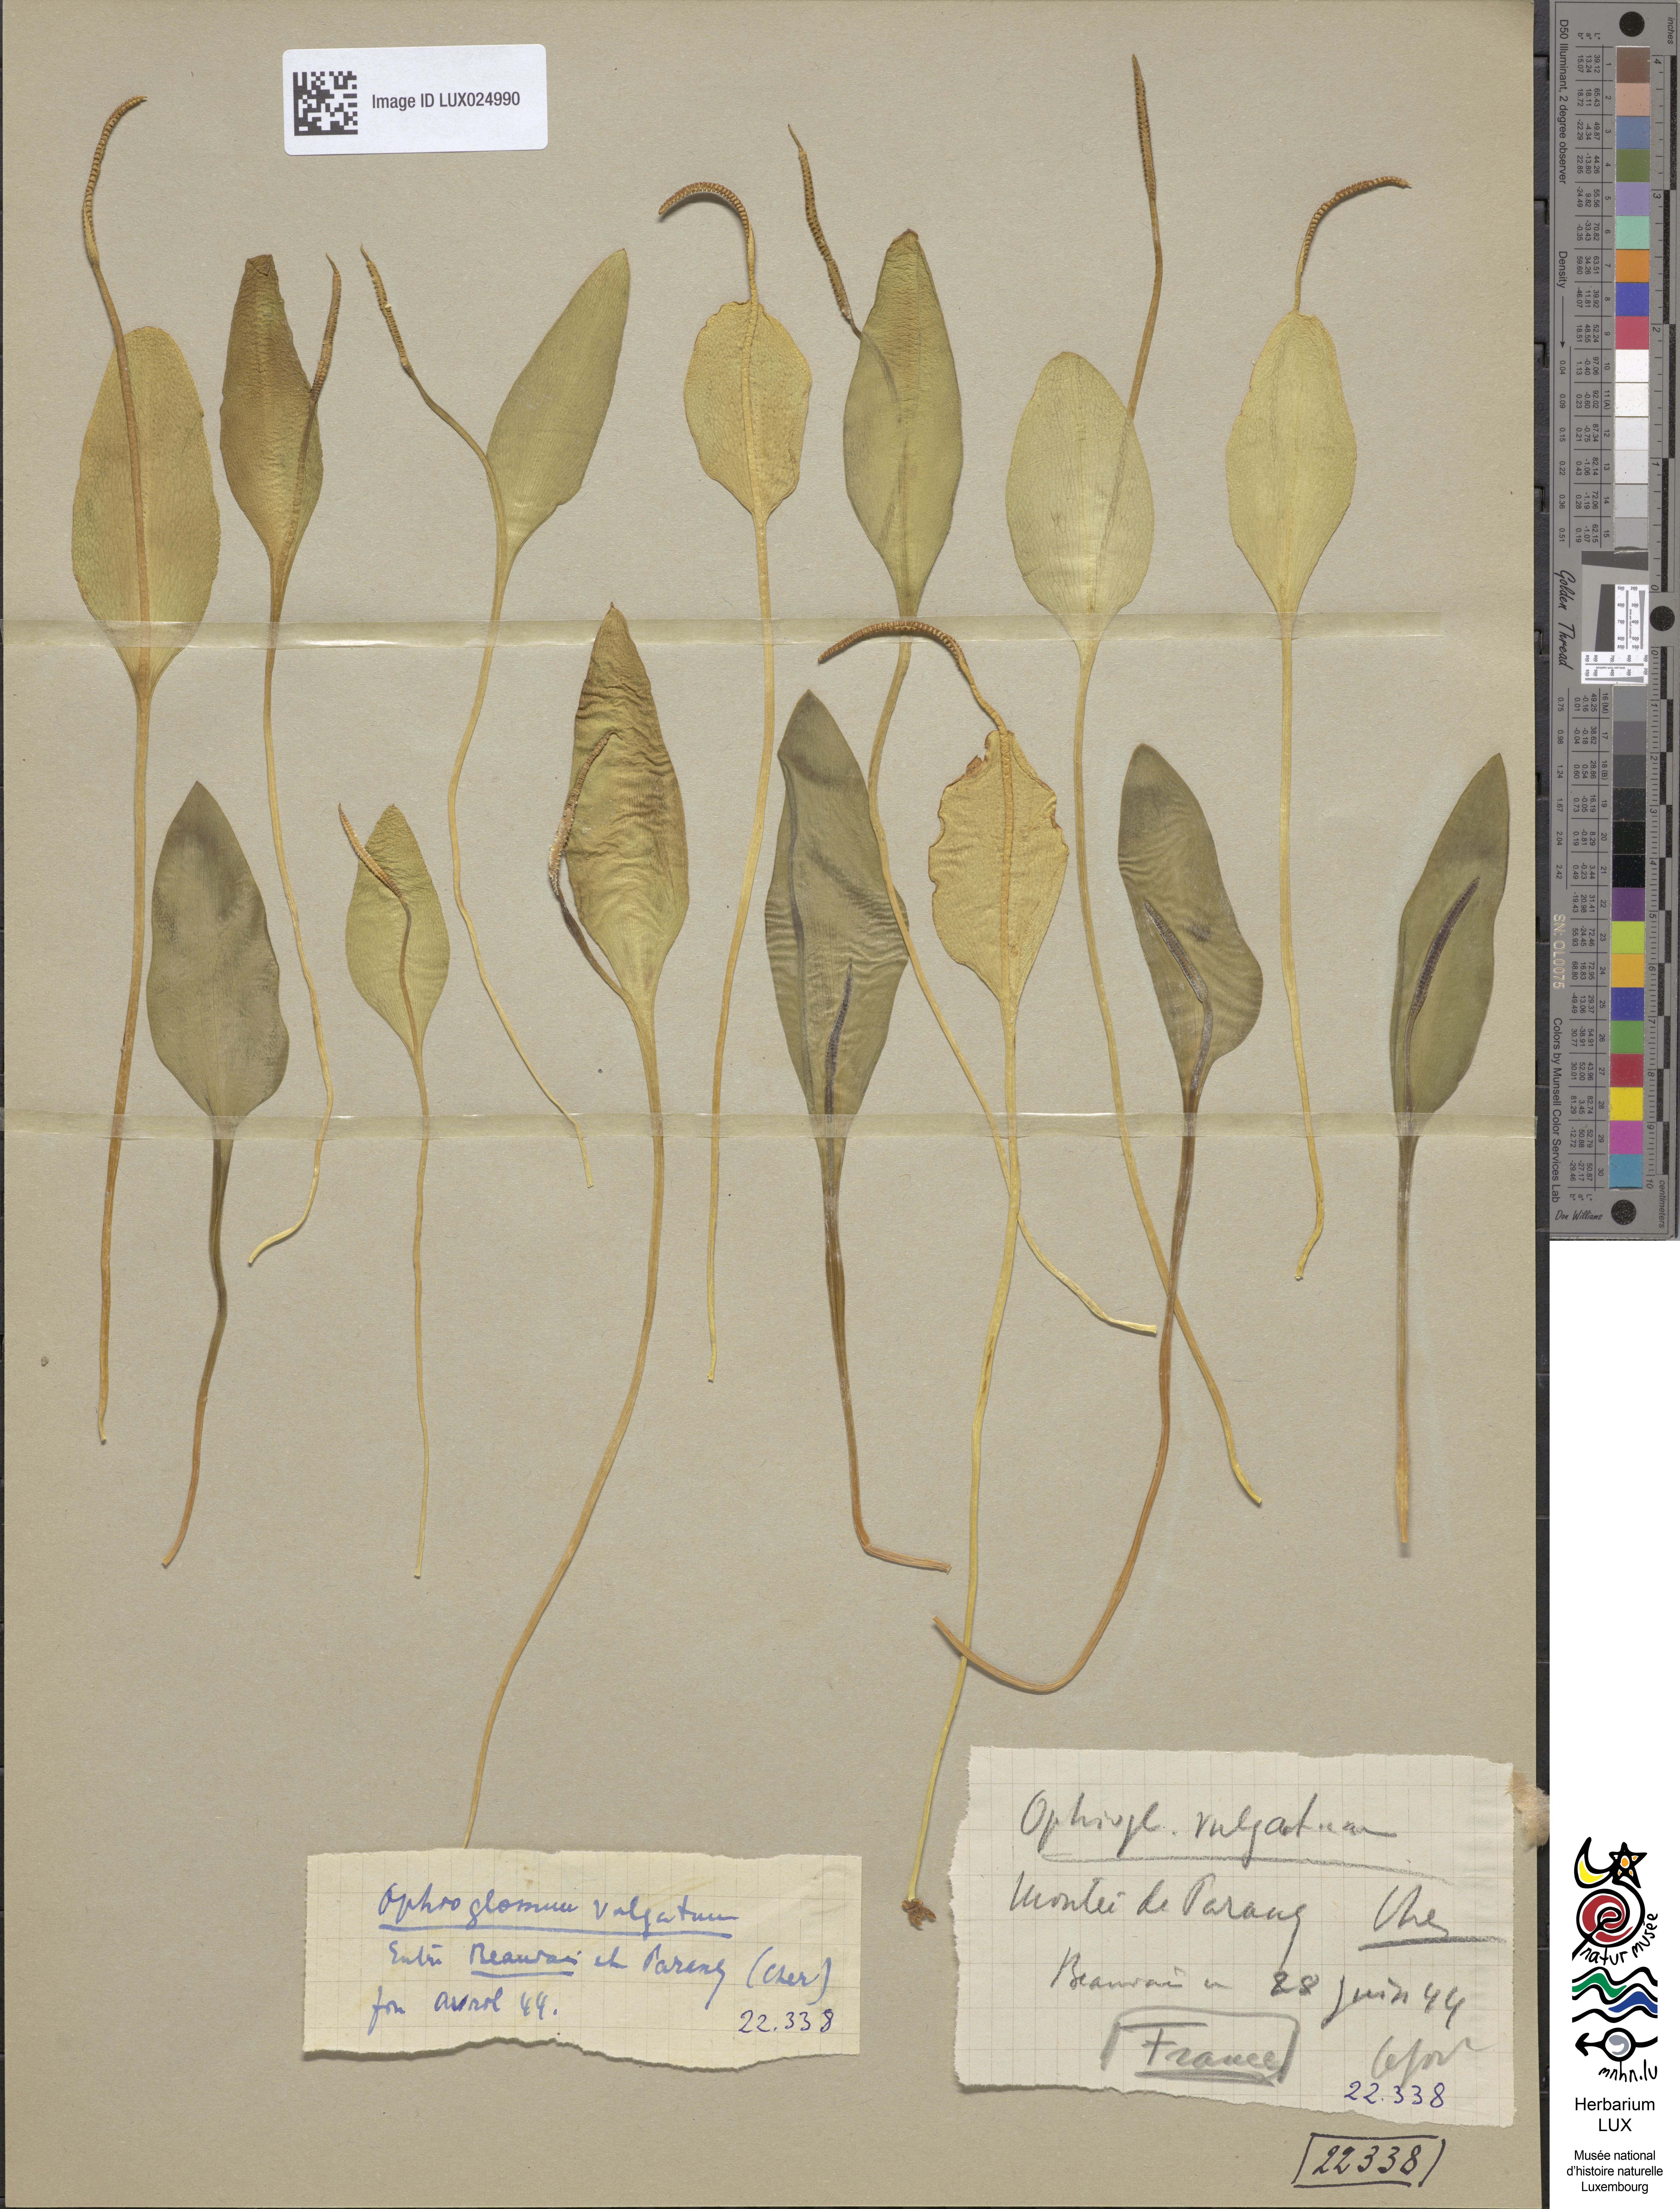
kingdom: Plantae
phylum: Tracheophyta
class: Polypodiopsida
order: Ophioglossales
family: Ophioglossaceae
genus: Ophioglossum
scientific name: Ophioglossum vulgatum
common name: Adder's-tongue
